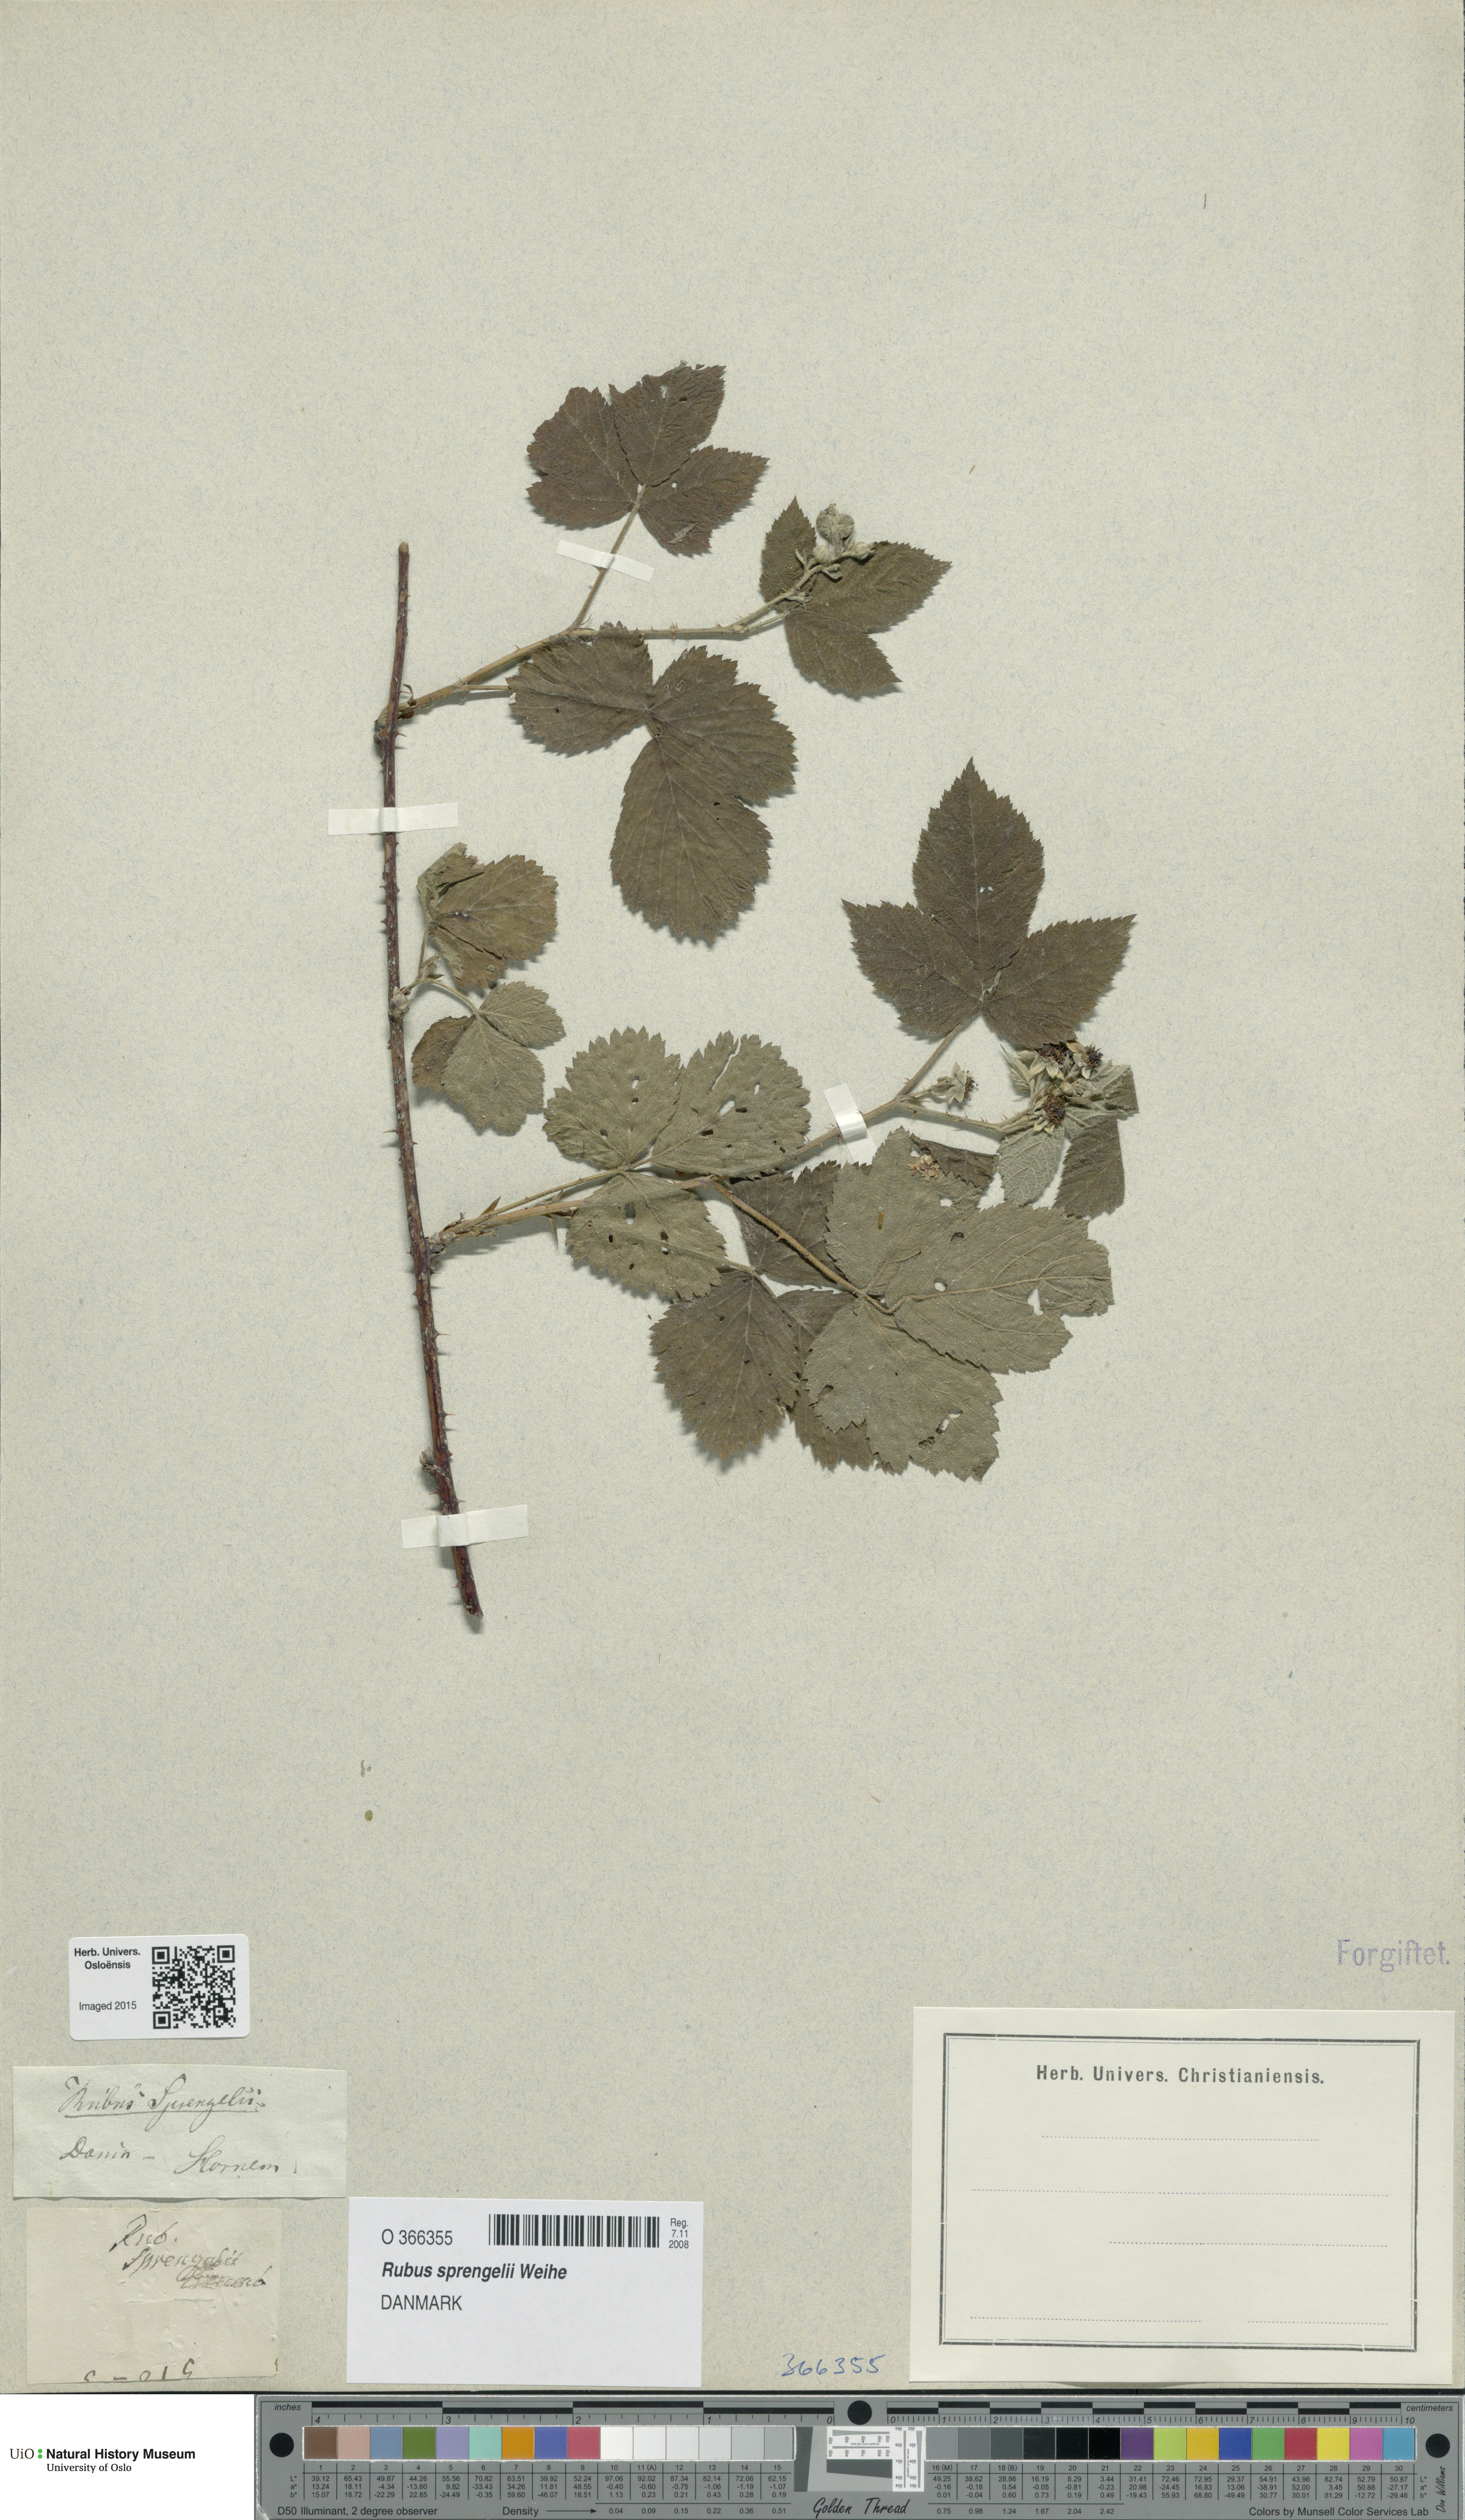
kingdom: Plantae
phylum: Tracheophyta
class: Magnoliopsida
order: Rosales
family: Rosaceae
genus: Rubus
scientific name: Rubus sprengelii
